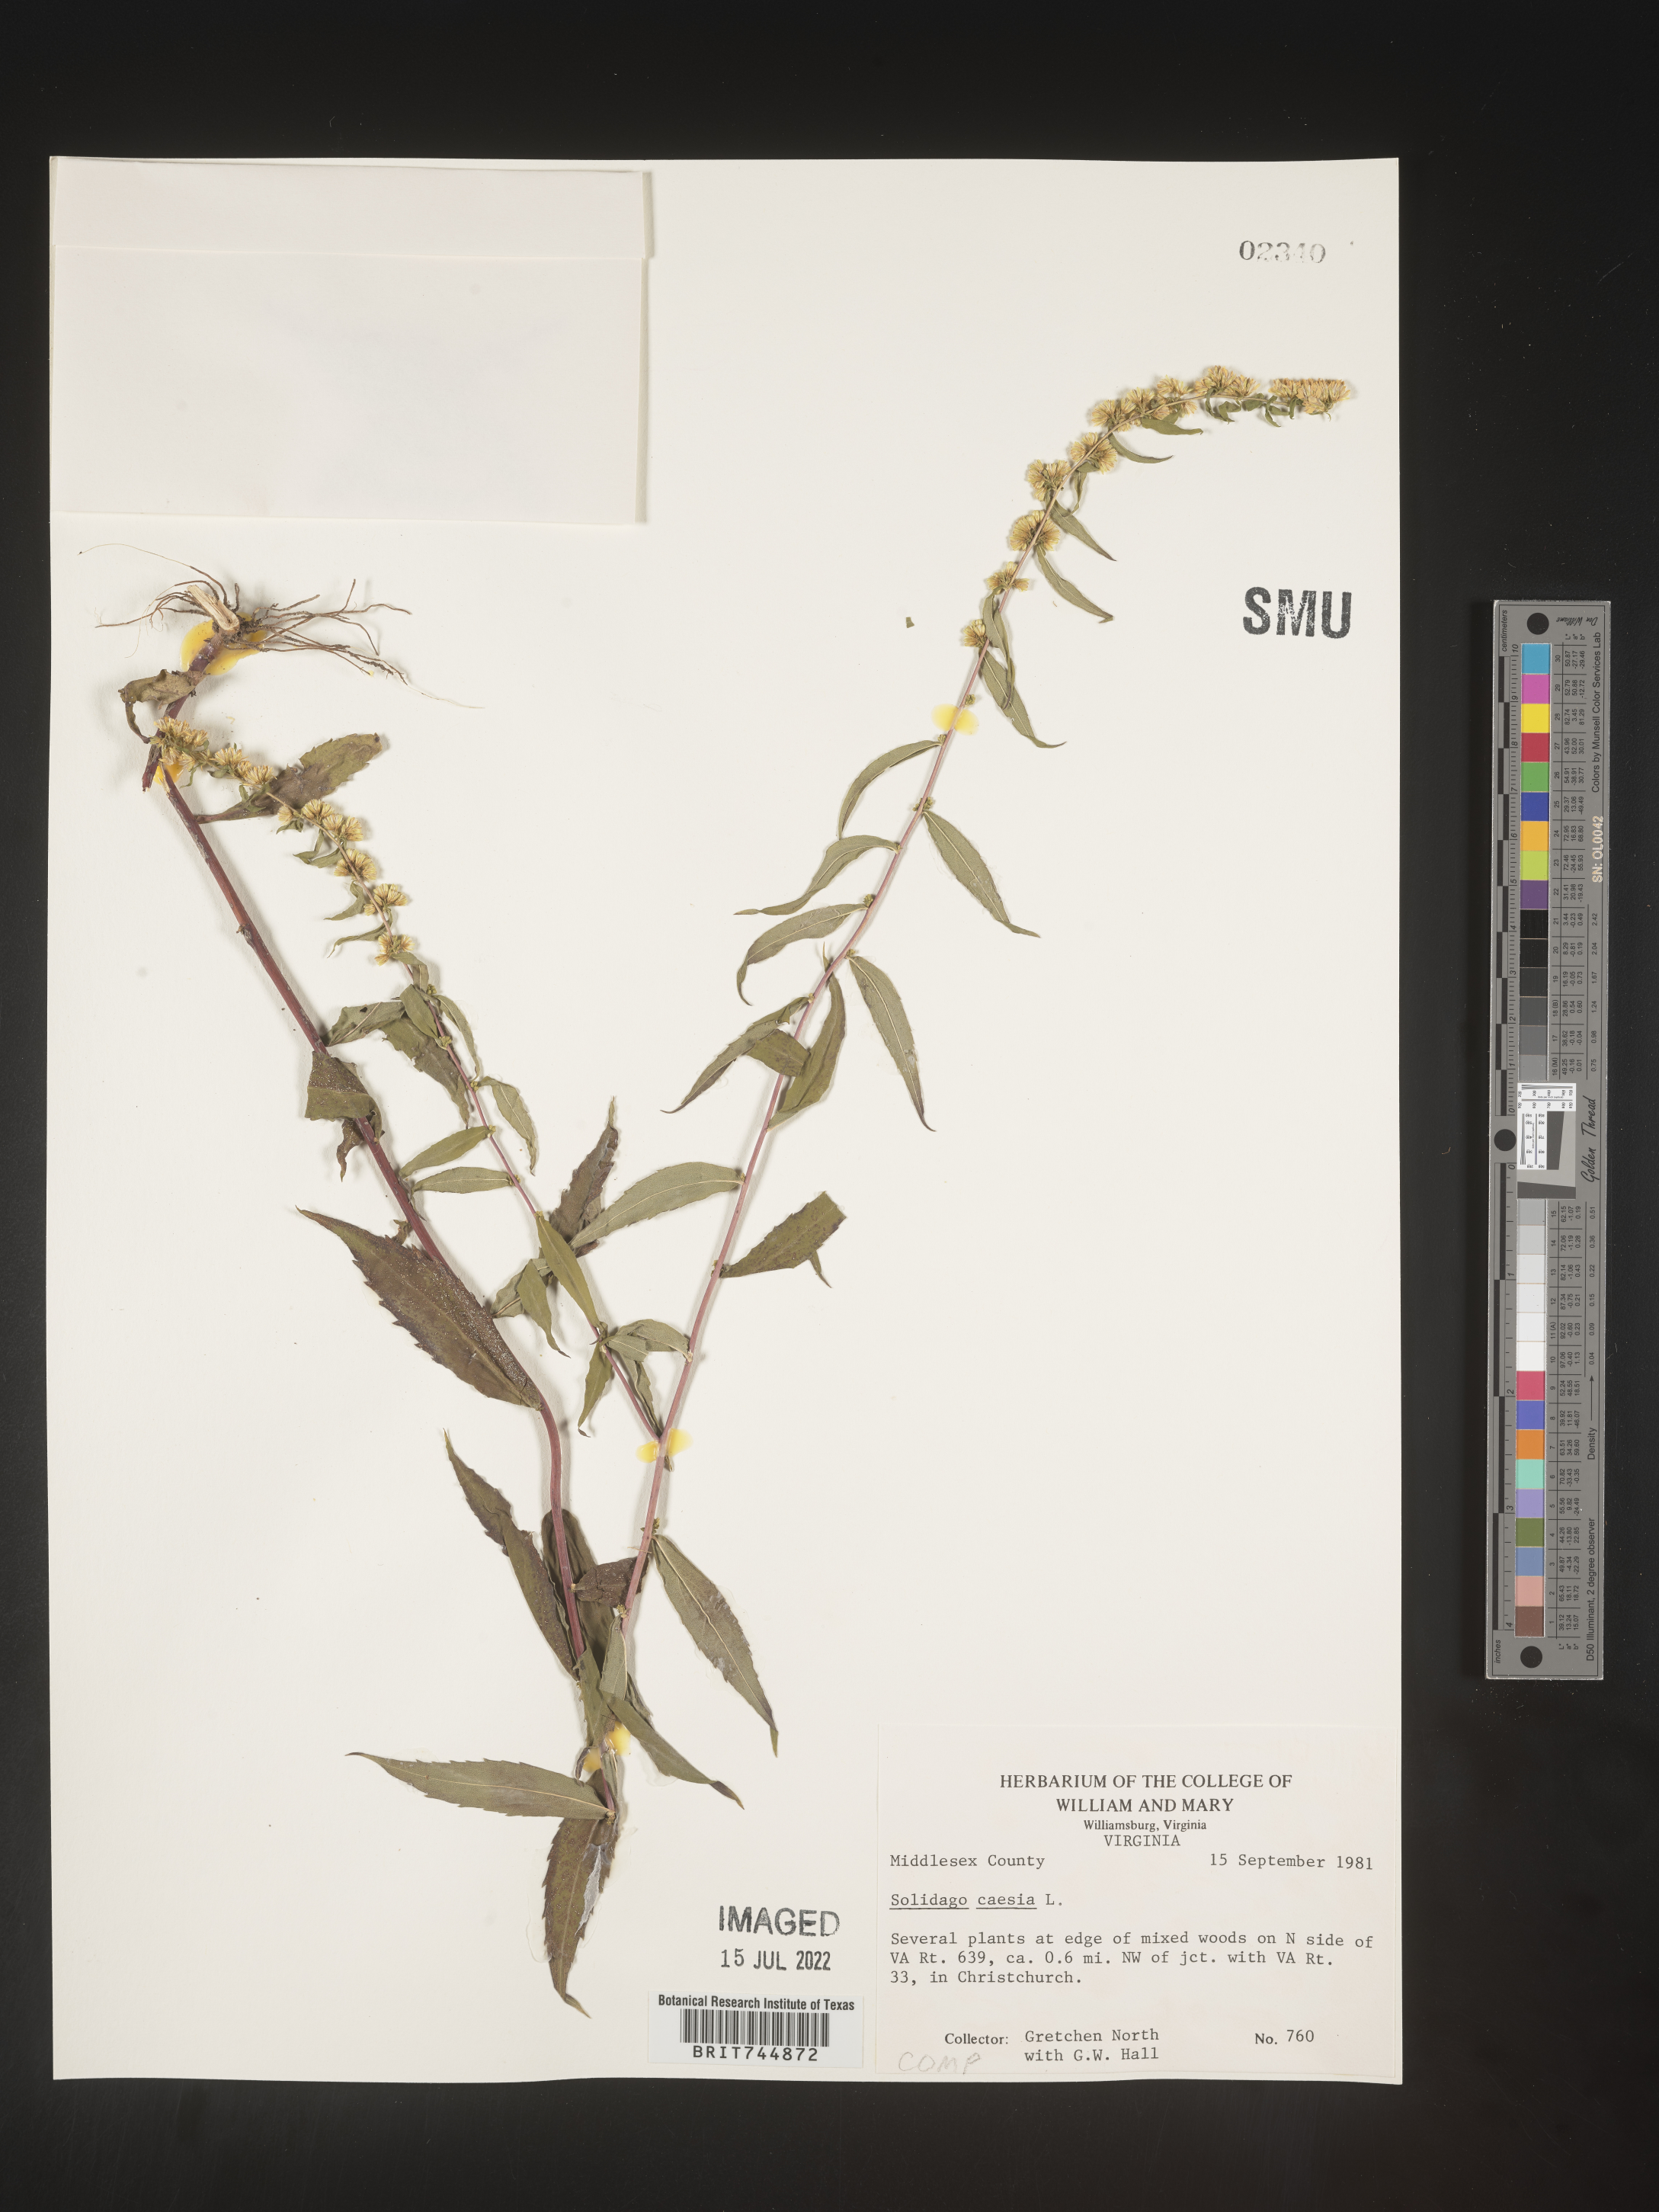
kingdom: Plantae
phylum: Tracheophyta
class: Magnoliopsida
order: Asterales
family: Asteraceae
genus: Solidago
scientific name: Solidago caesia
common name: Woodland goldenrod
